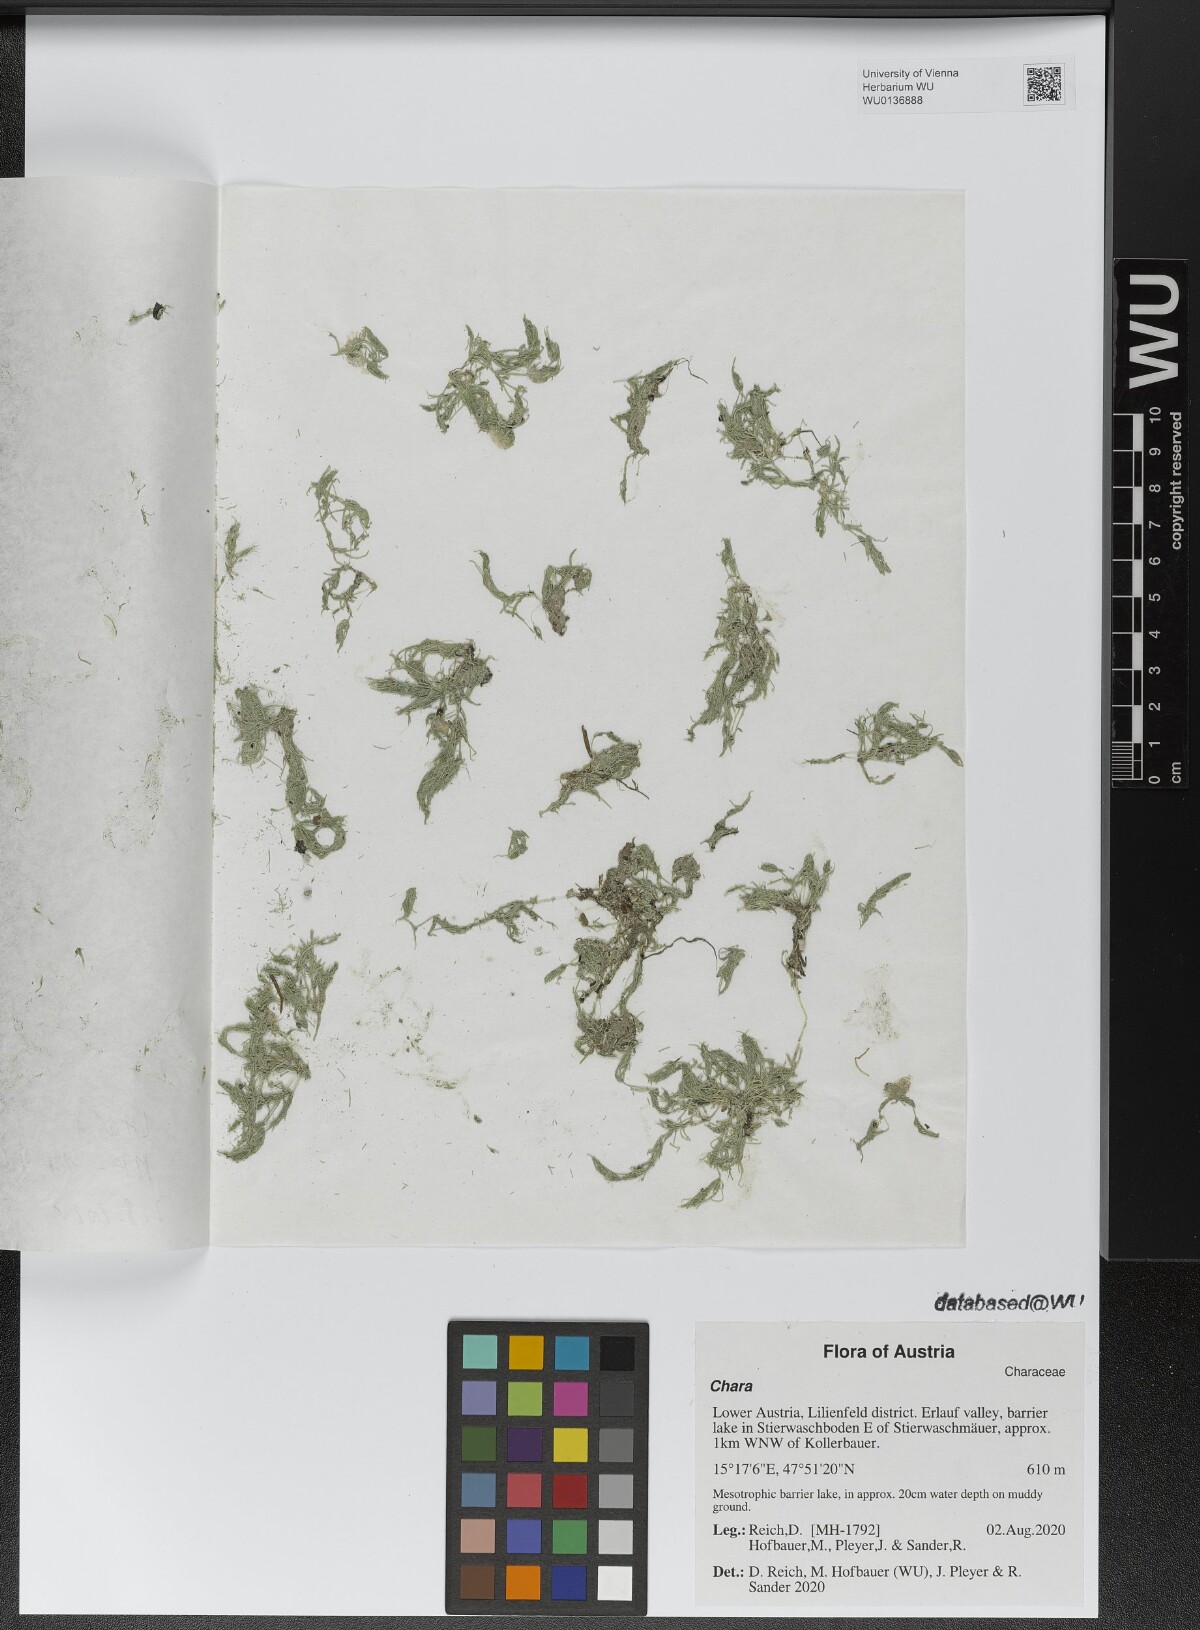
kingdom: Plantae
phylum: Charophyta
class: Charophyceae
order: Charales
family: Characeae
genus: Chara
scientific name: Chara
